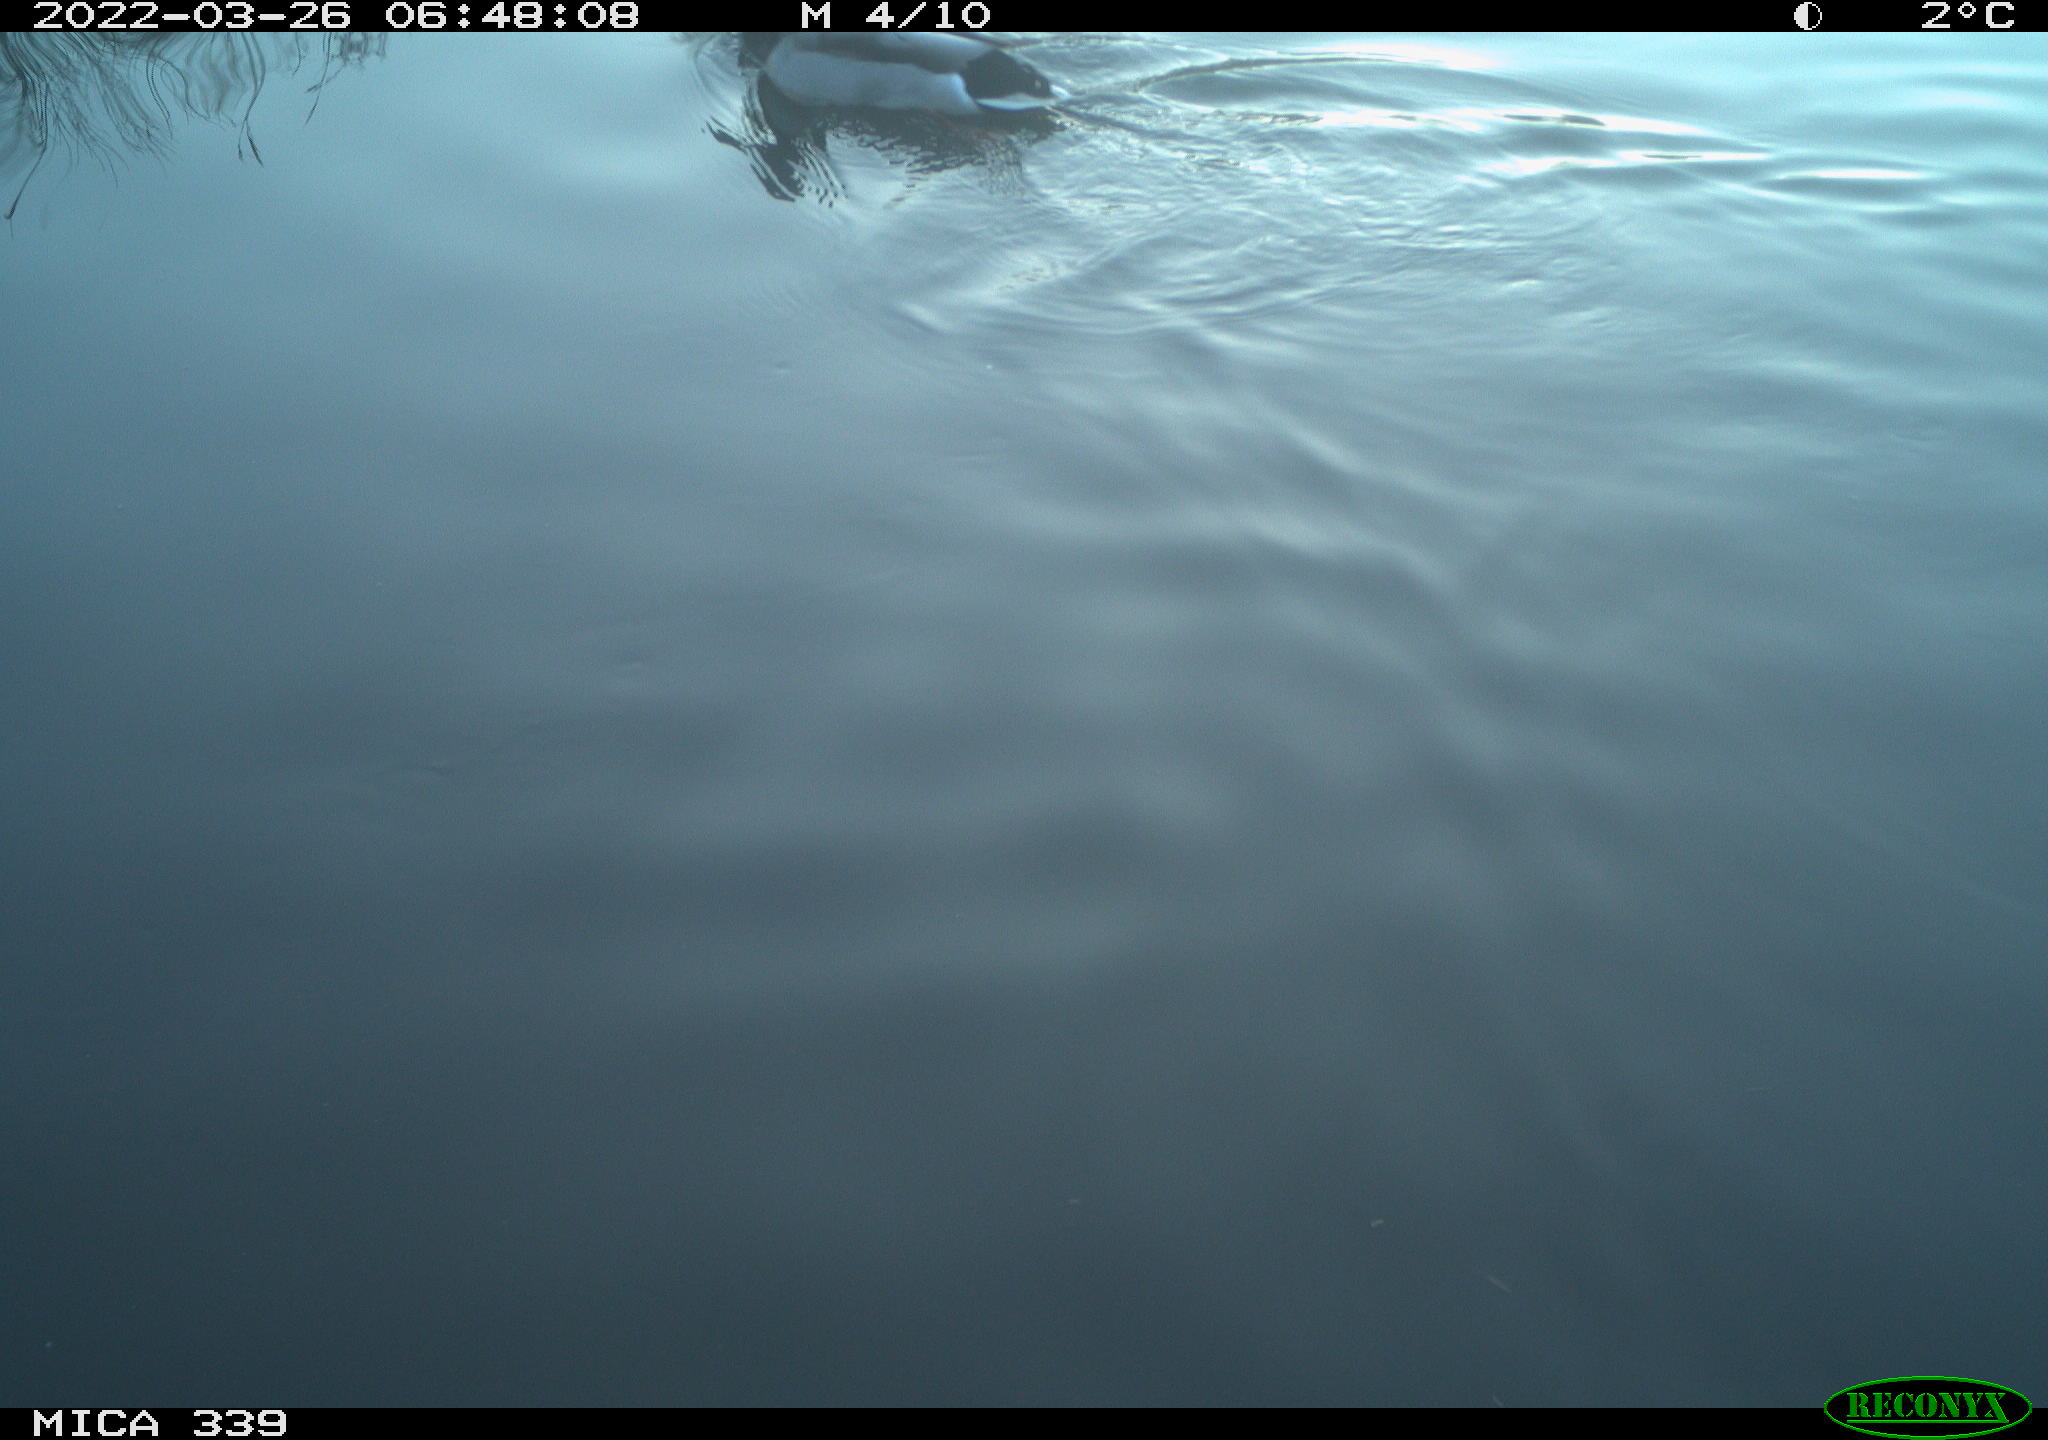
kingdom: Animalia
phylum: Chordata
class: Aves
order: Anseriformes
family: Anatidae
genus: Anas
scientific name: Anas platyrhynchos
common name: Mallard
